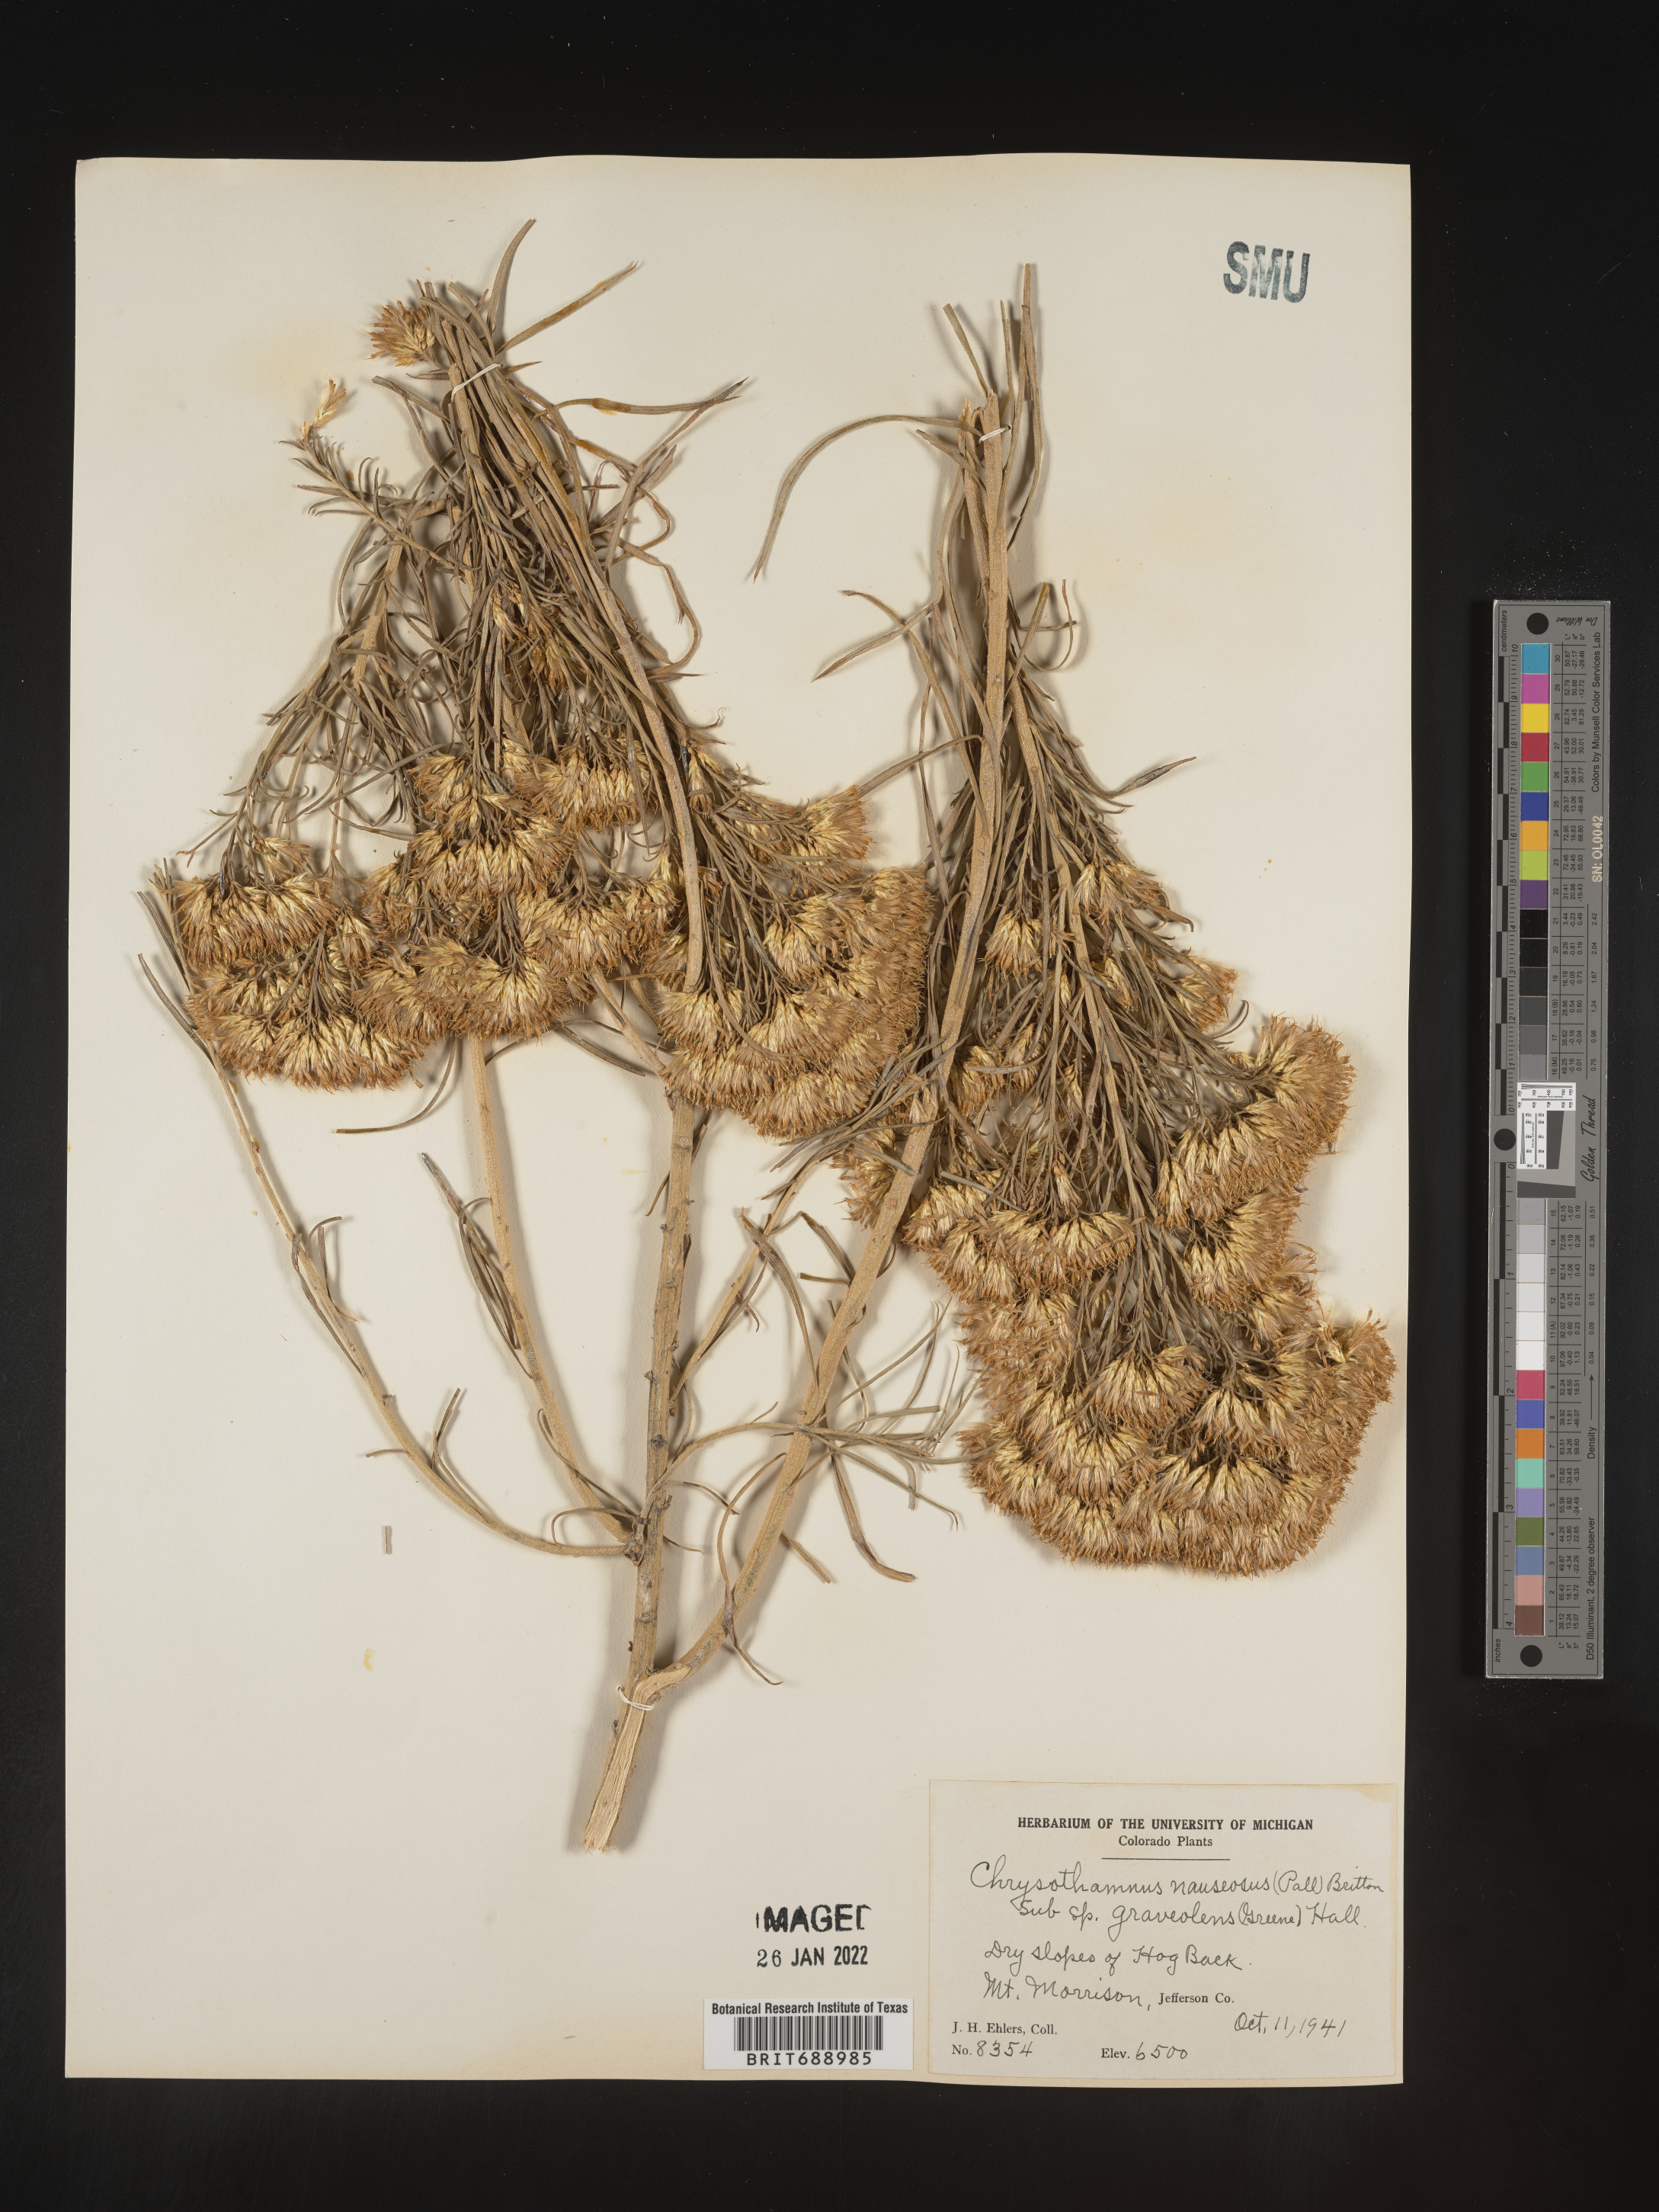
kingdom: Plantae
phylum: Tracheophyta
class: Magnoliopsida
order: Asterales
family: Asteraceae
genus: Ericameria
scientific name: Ericameria nauseosa
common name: Rubber rabbitbrush
